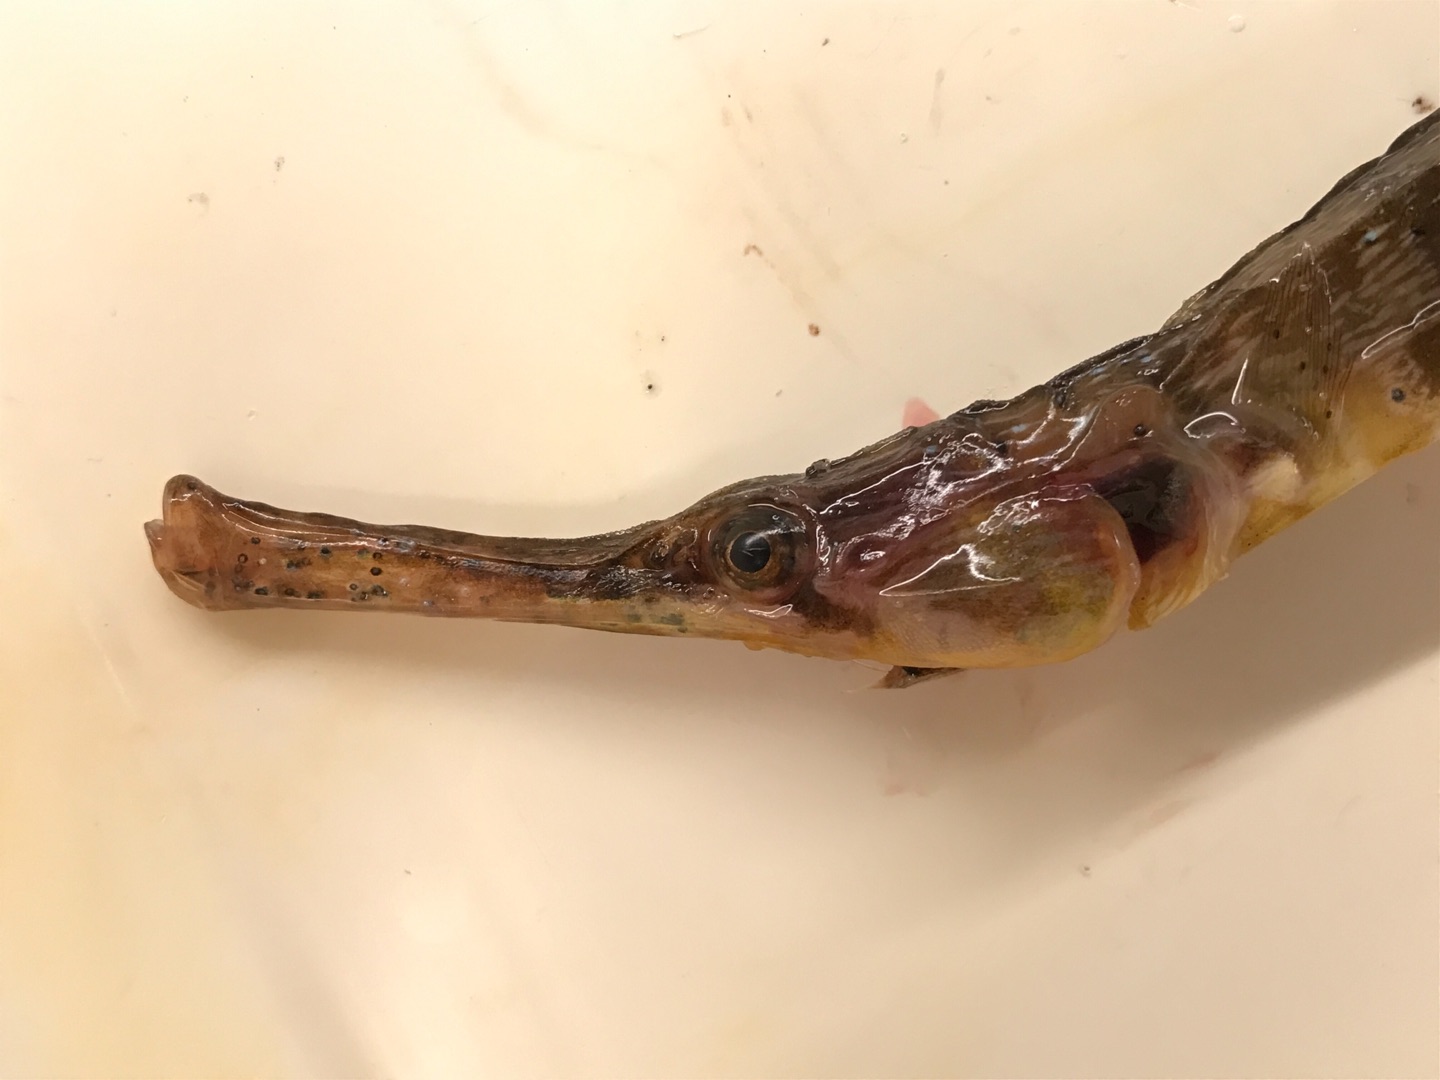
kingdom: Animalia
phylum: Chordata
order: Syngnathiformes
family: Syngnathidae
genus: Syngnathus
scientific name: Syngnathus acus
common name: Stor tangnål
